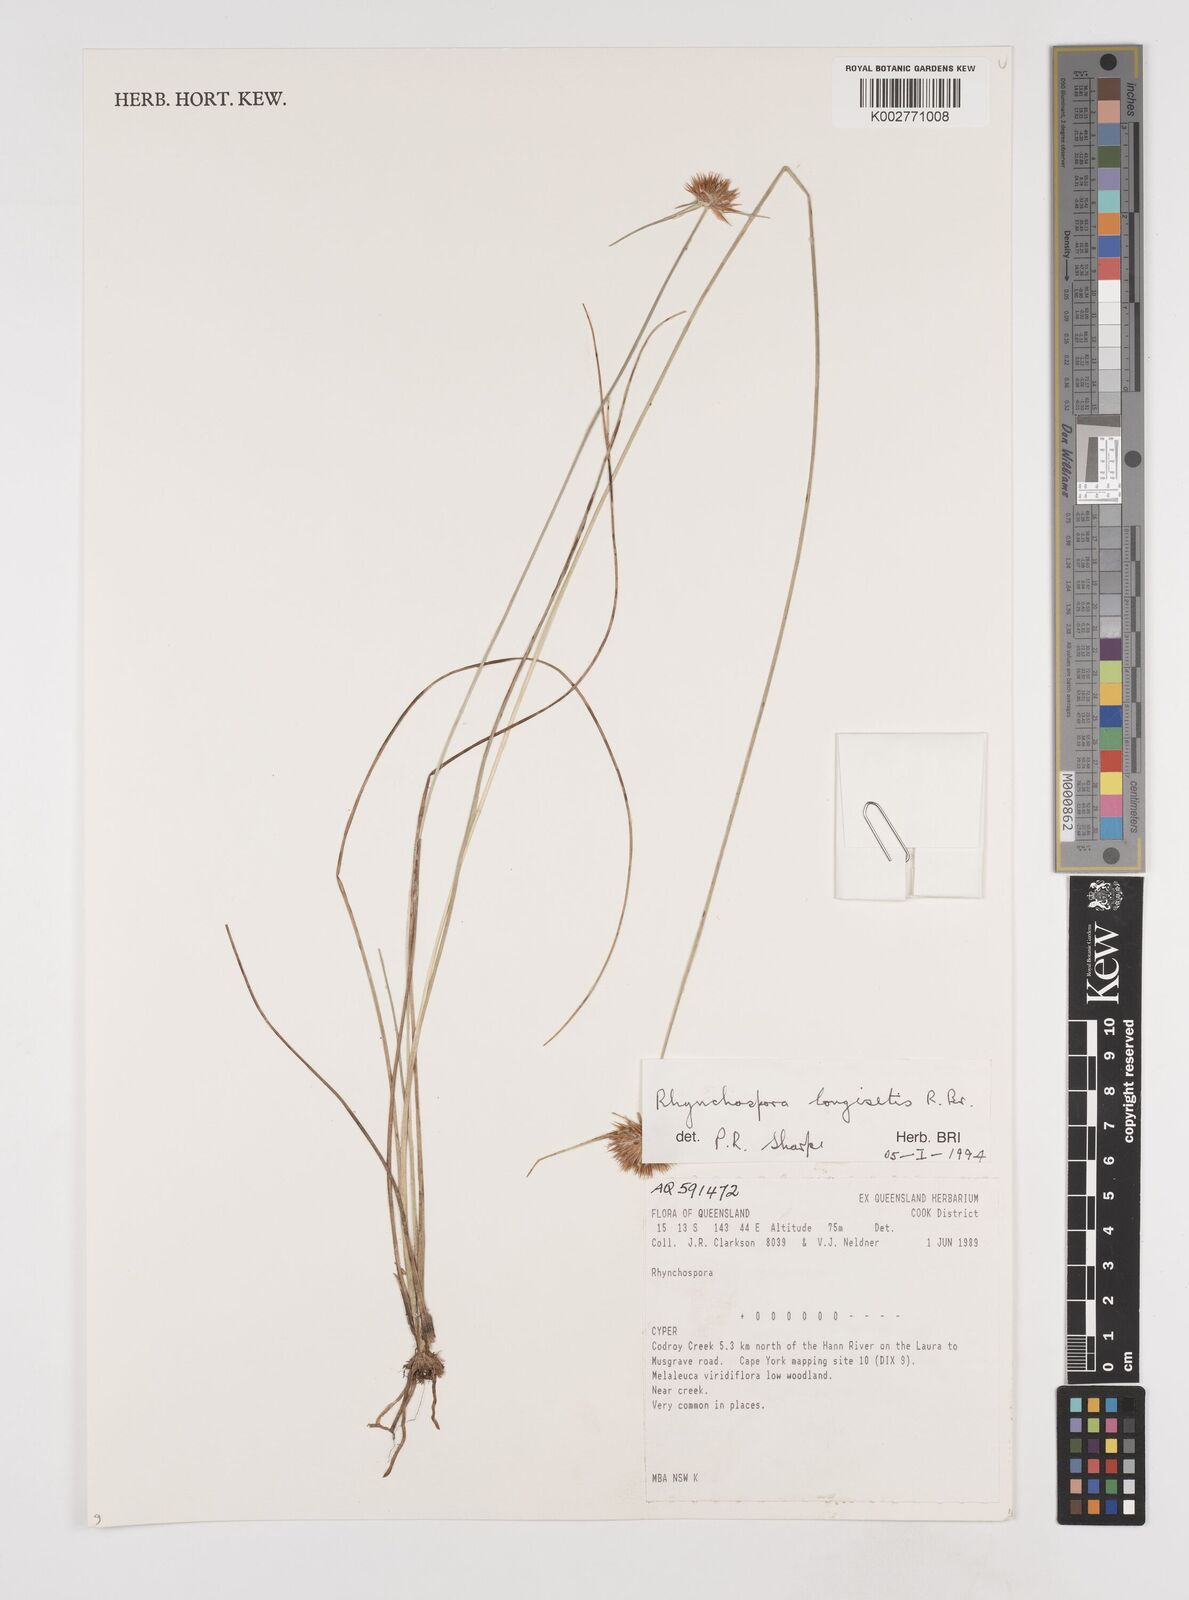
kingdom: Plantae
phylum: Tracheophyta
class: Liliopsida
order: Poales
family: Cyperaceae
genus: Rhynchospora
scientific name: Rhynchospora longisetis
